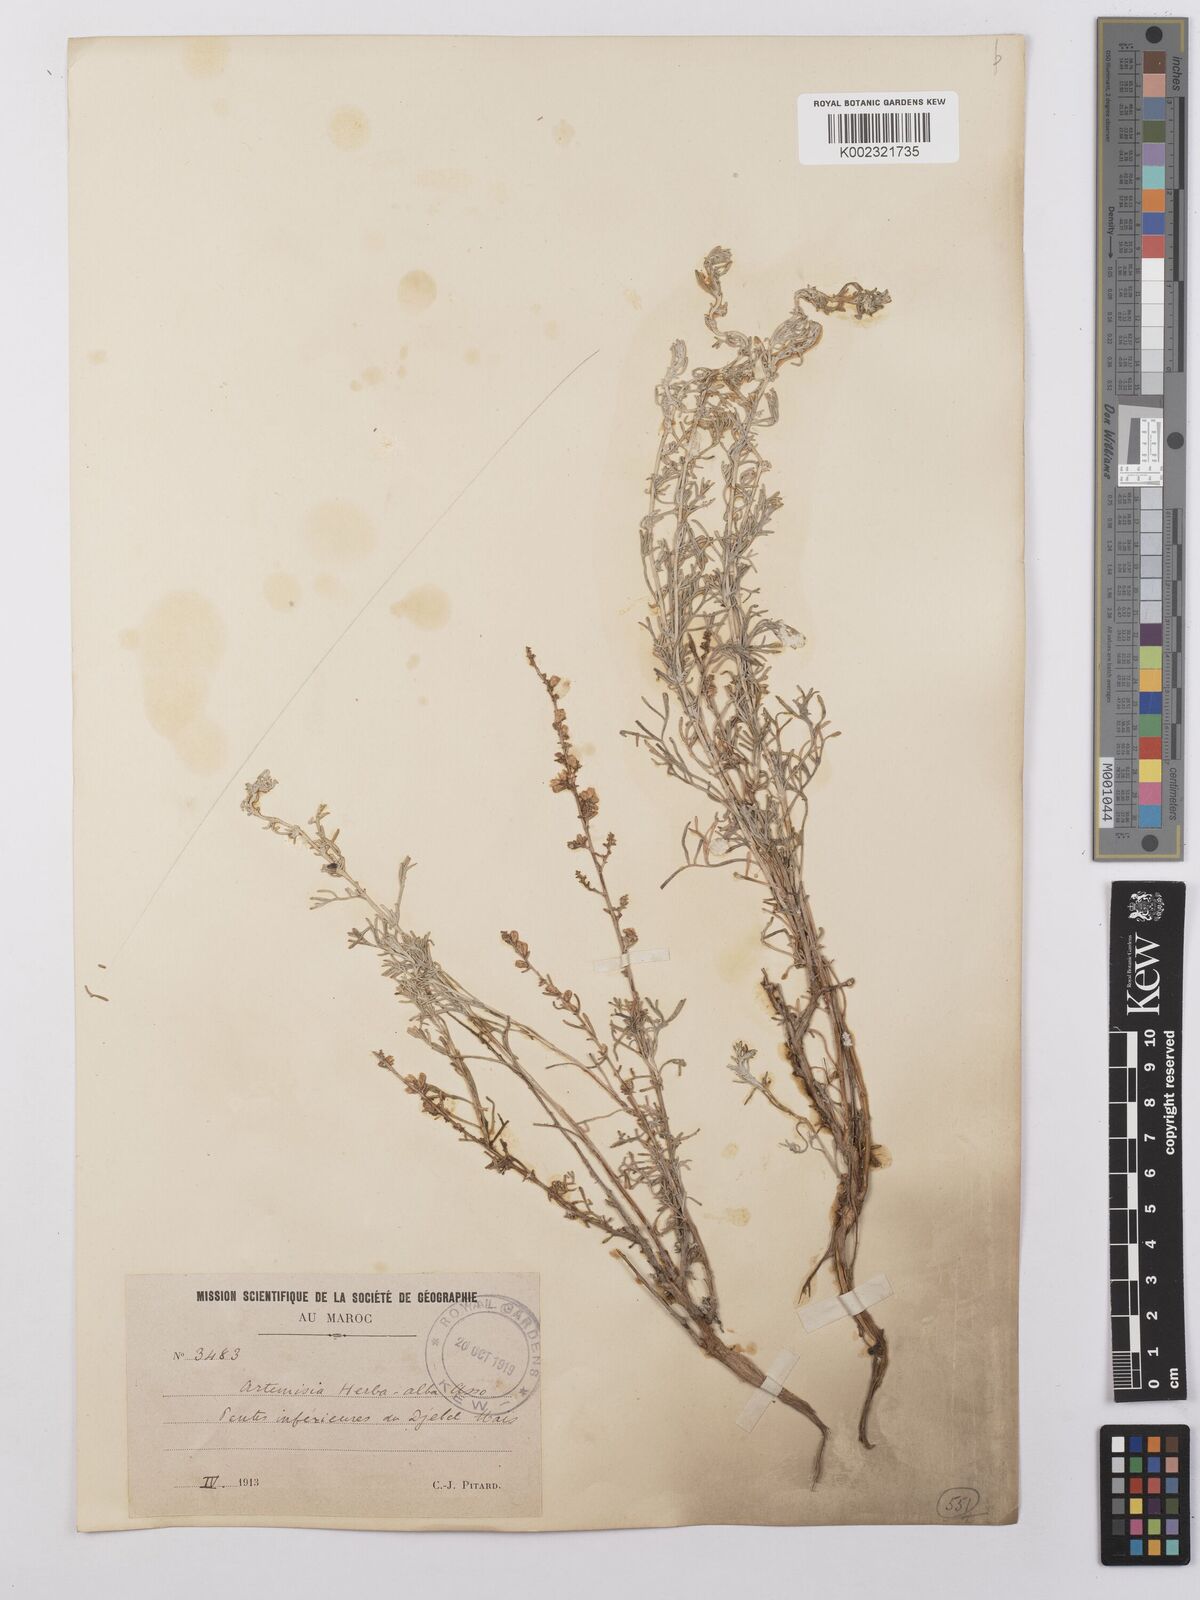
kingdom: Plantae
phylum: Tracheophyta
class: Magnoliopsida
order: Asterales
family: Asteraceae
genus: Artemisia
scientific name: Artemisia herba-alba
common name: White wormwood
